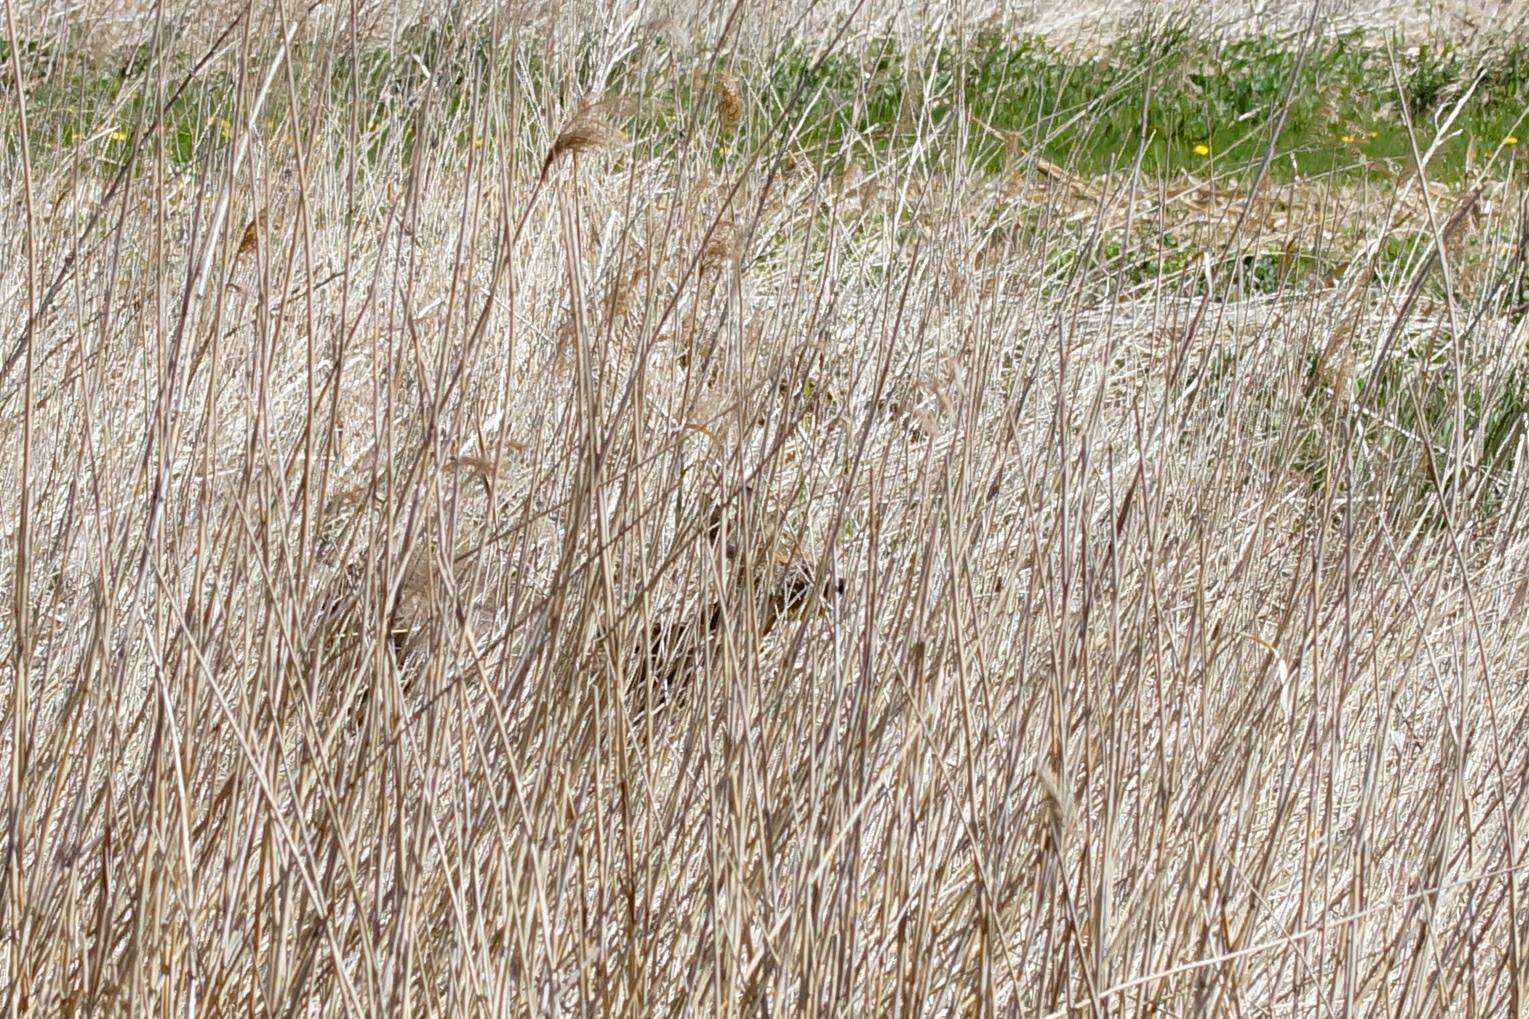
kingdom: Animalia
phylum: Chordata
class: Mammalia
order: Artiodactyla
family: Cervidae
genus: Capreolus
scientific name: Capreolus capreolus
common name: Rådyr
